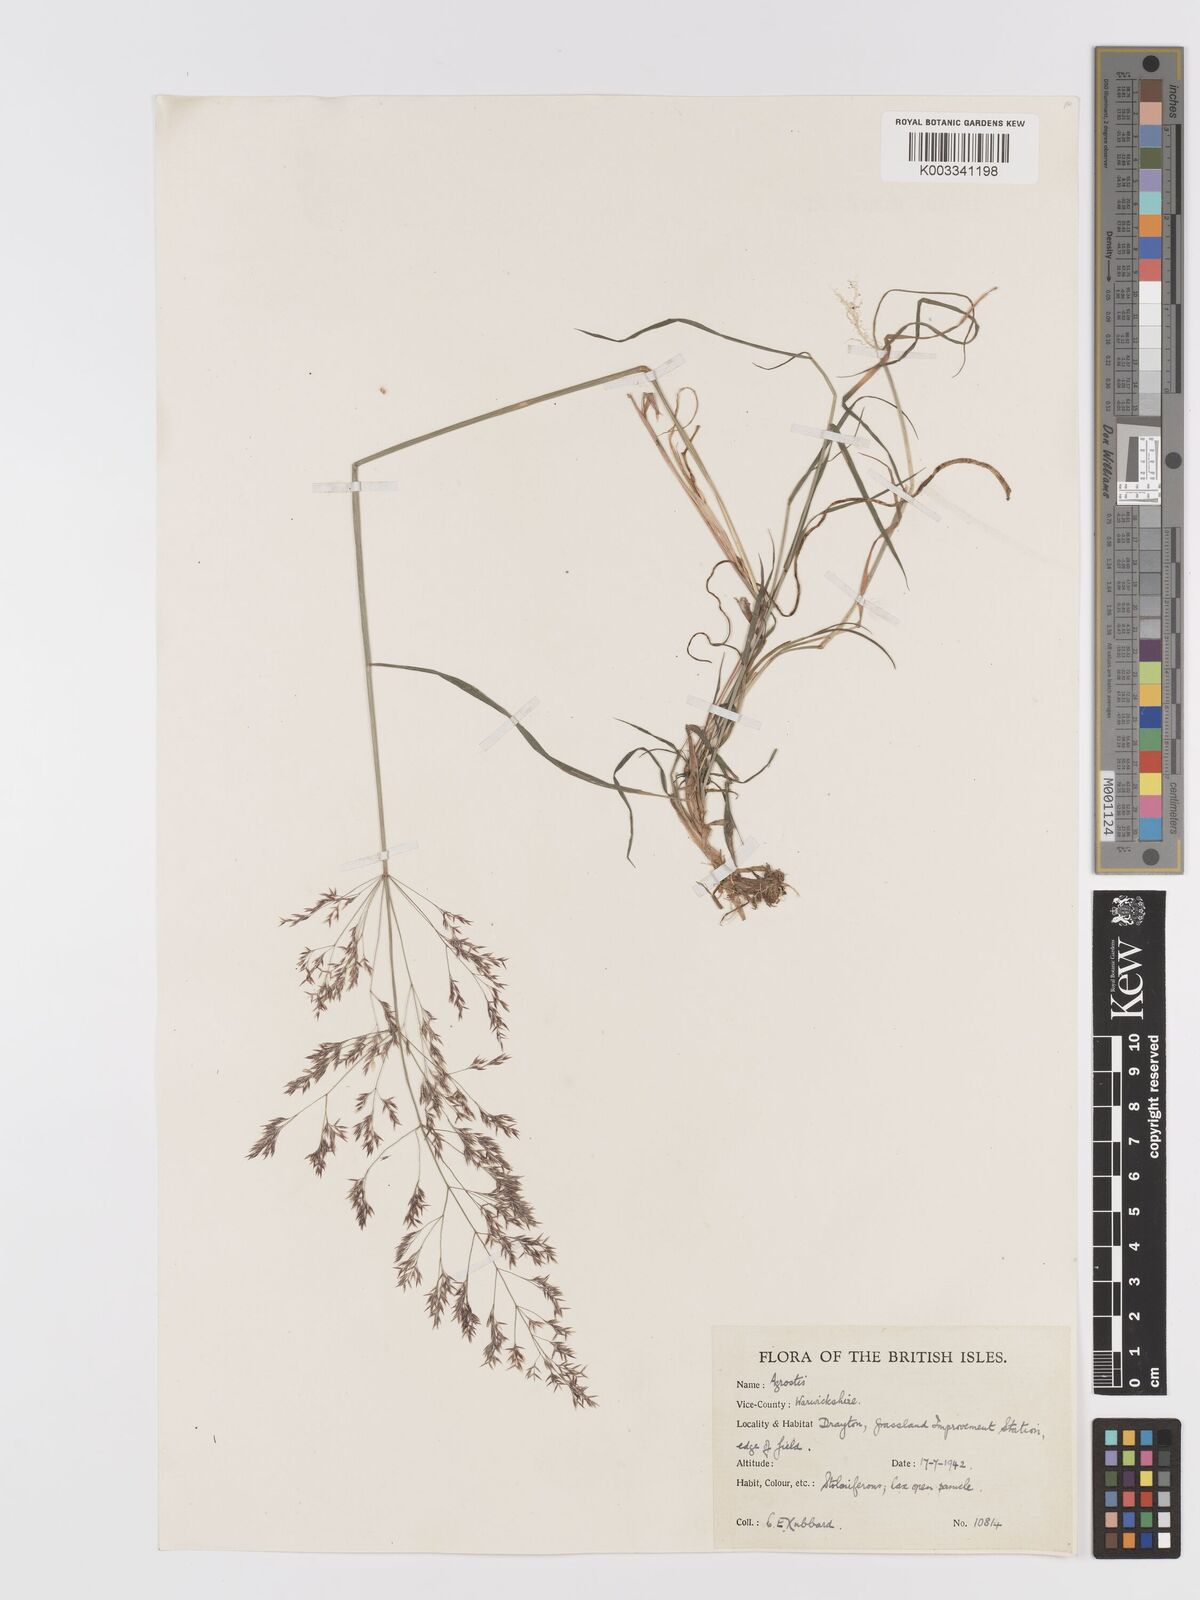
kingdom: Plantae
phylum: Tracheophyta
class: Liliopsida
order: Poales
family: Poaceae
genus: Agrostis
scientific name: Agrostis gigantea
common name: Black bent
